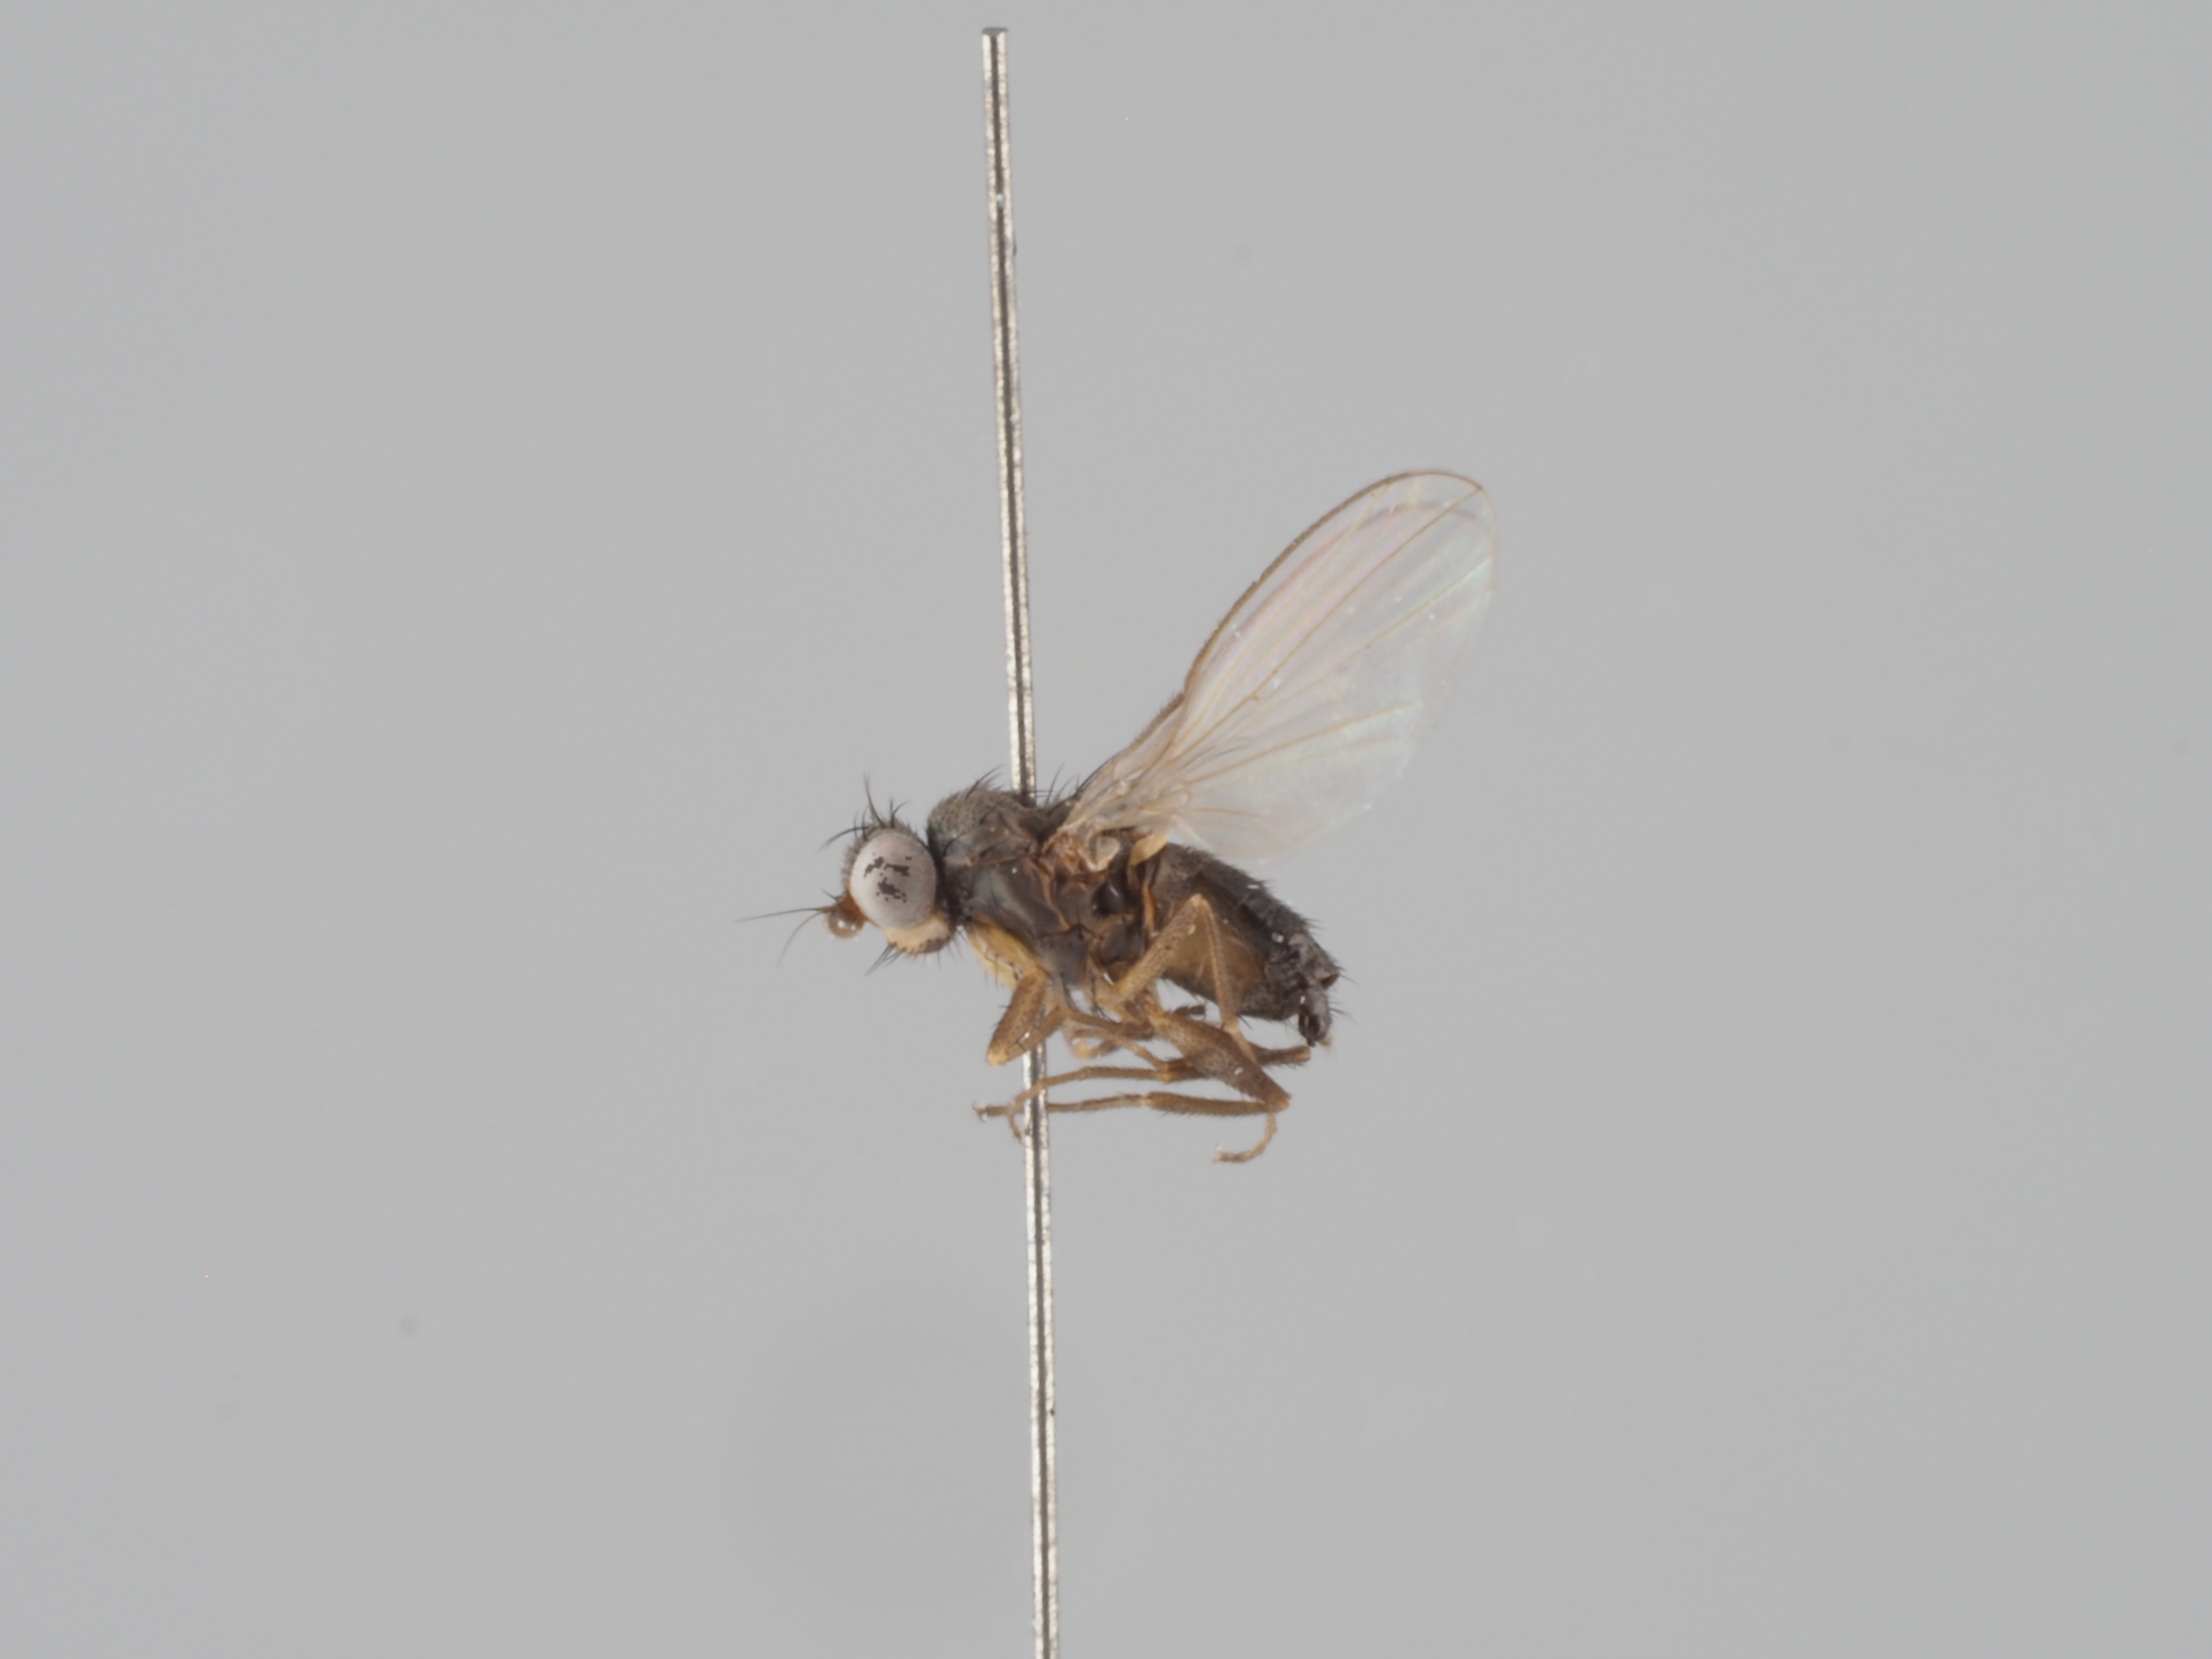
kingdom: Animalia
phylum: Arthropoda
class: Insecta
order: Diptera
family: Heleomyzidae
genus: Neossos
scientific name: Neossos nidicola
